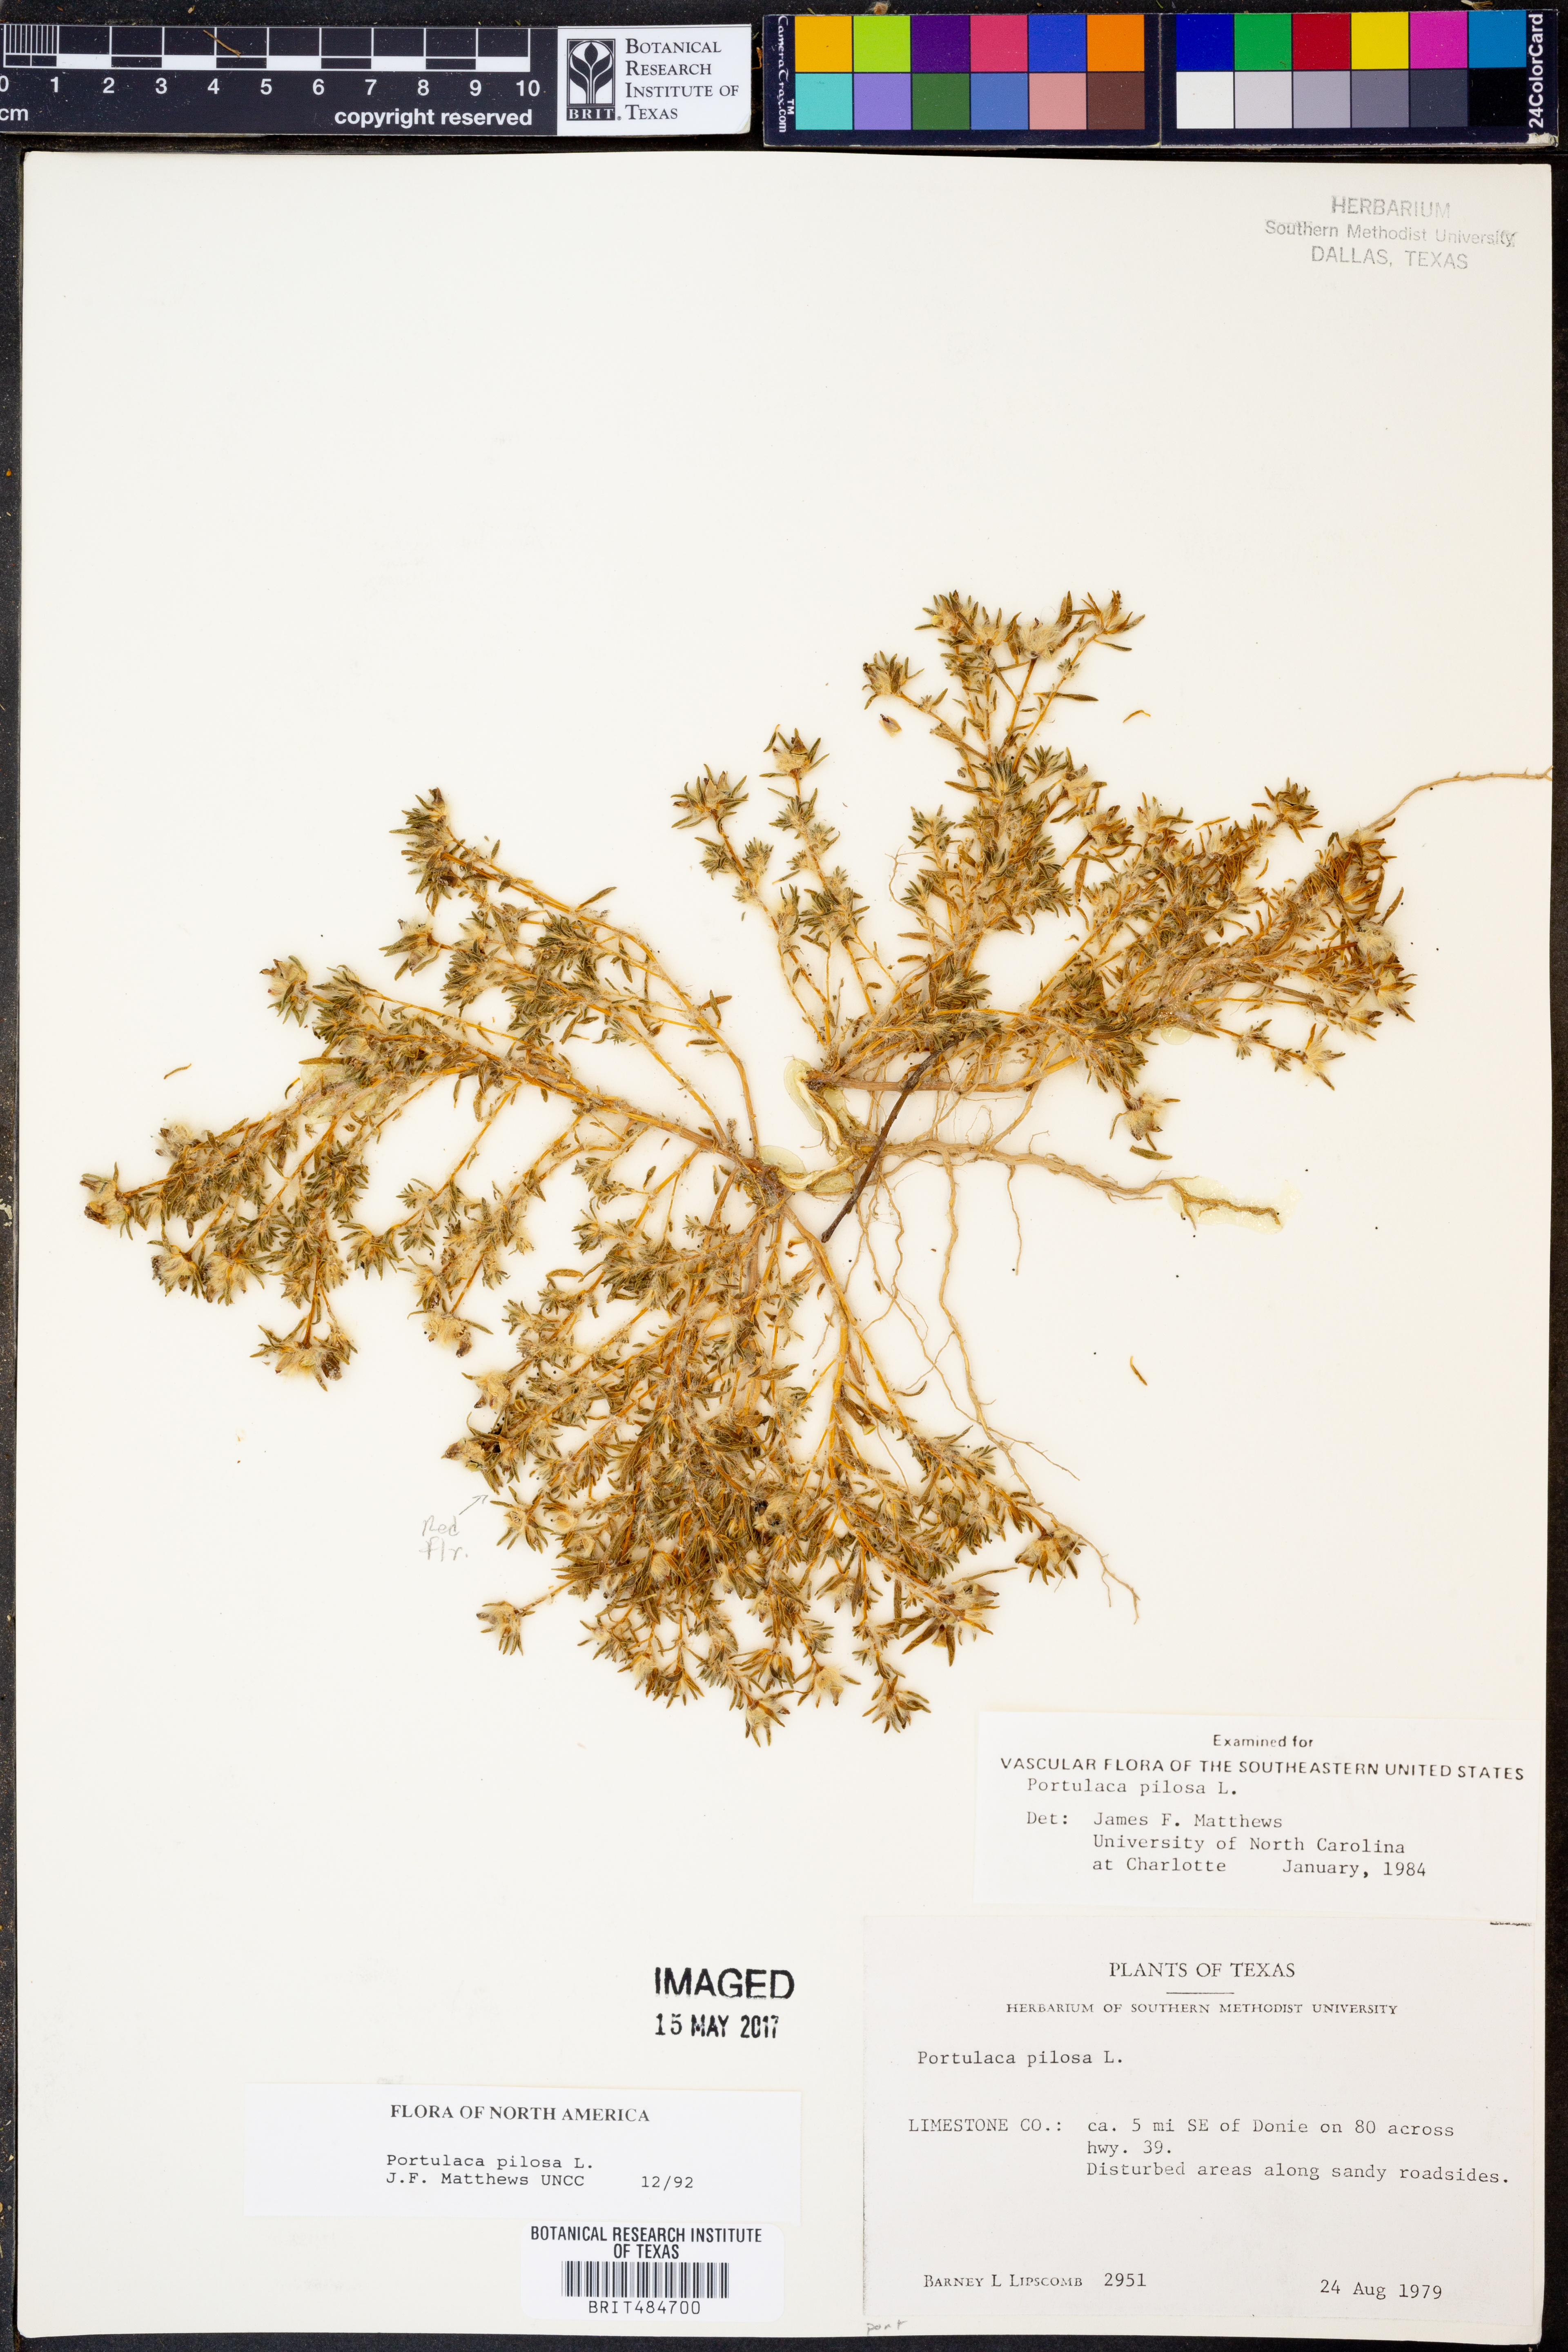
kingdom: Plantae
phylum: Tracheophyta
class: Magnoliopsida
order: Caryophyllales
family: Portulacaceae
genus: Portulaca
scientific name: Portulaca pilosa
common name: Kiss me quick
